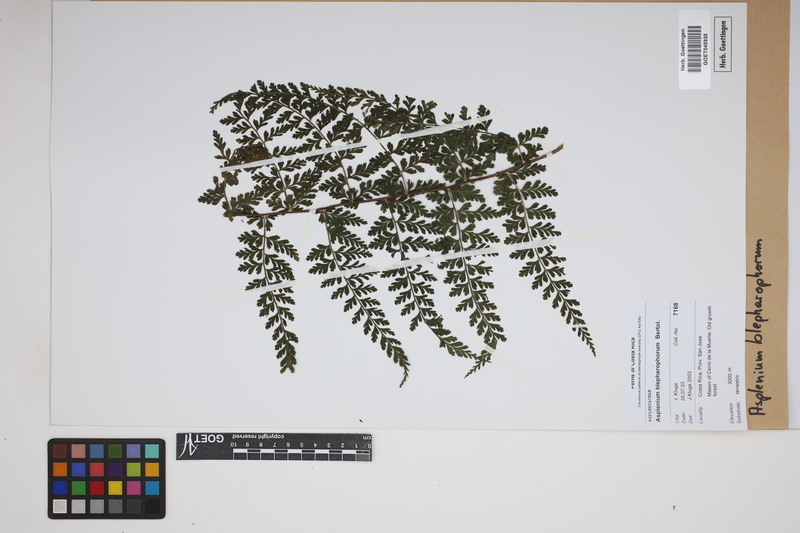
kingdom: Plantae
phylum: Tracheophyta
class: Polypodiopsida
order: Polypodiales
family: Aspleniaceae
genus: Asplenium
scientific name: Asplenium blepharophorum
